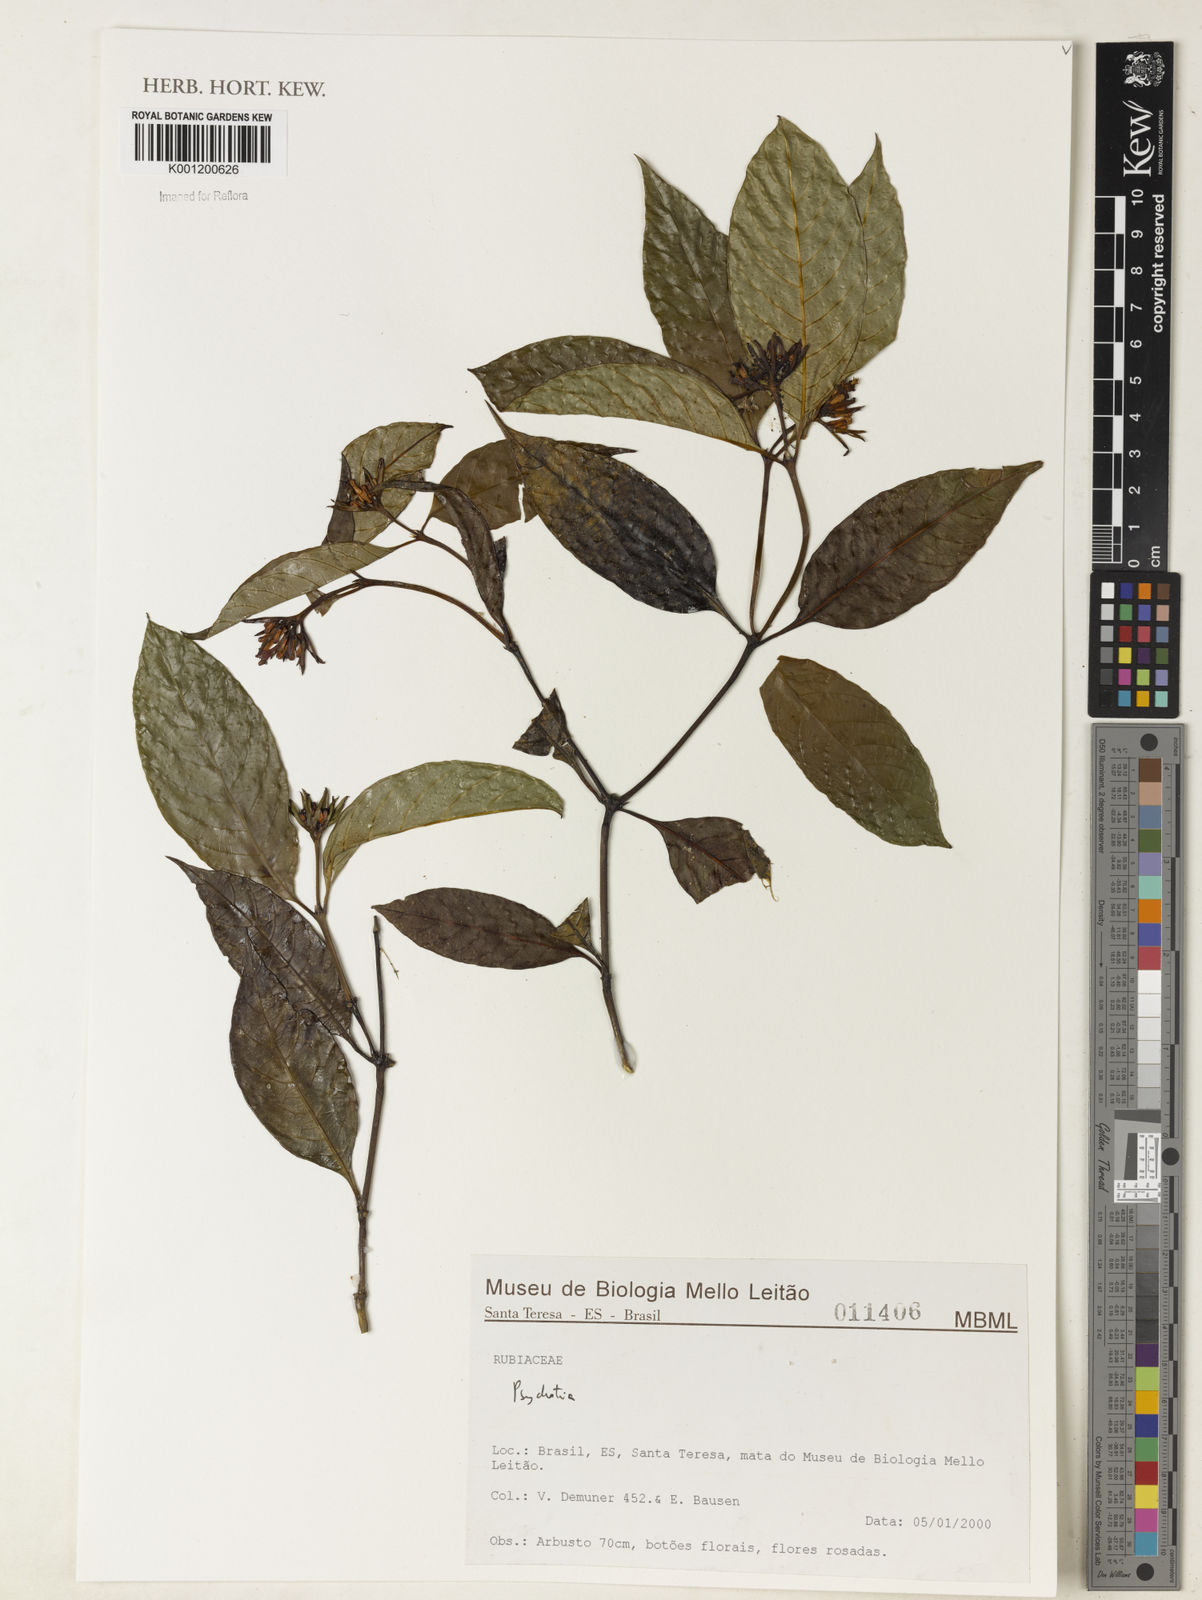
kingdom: Plantae
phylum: Tracheophyta
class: Magnoliopsida
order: Gentianales
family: Rubiaceae
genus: Psychotria
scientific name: Psychotria
